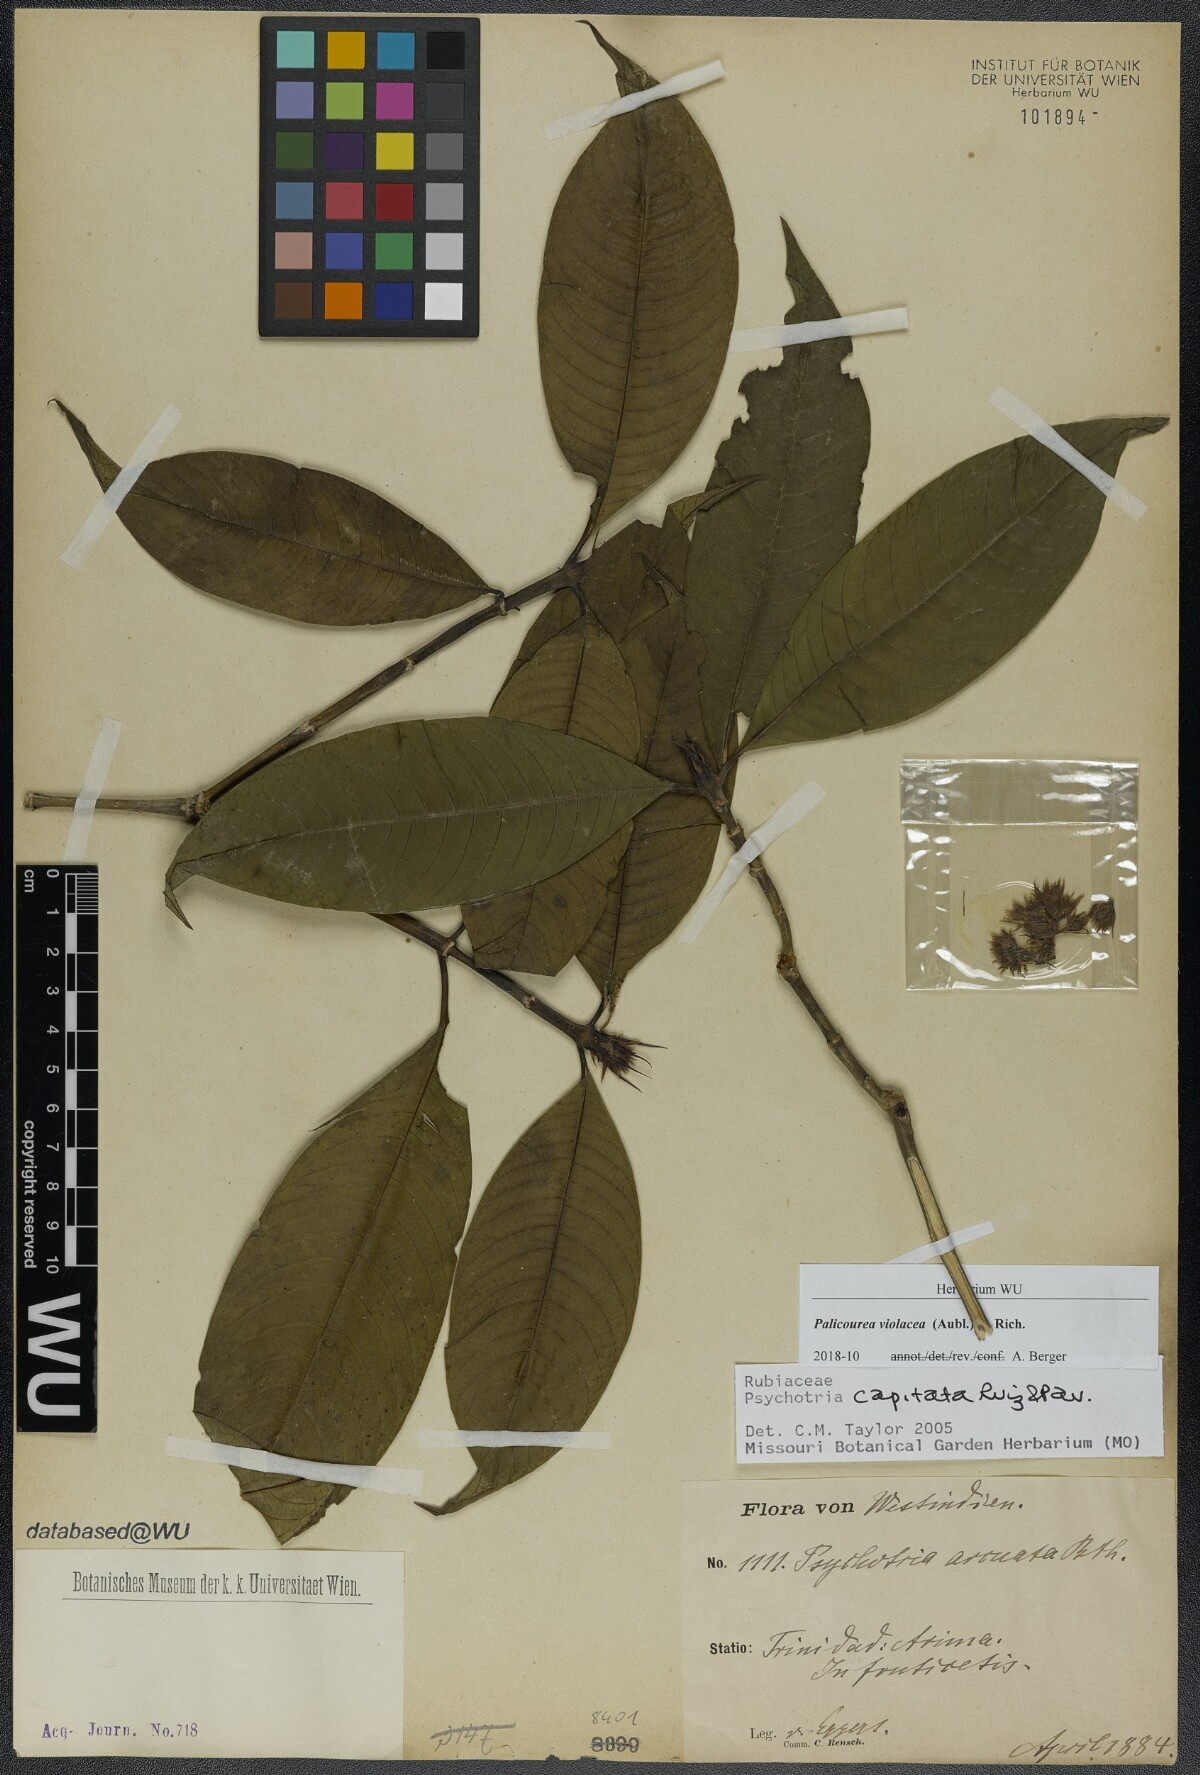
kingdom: Plantae
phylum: Tracheophyta
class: Magnoliopsida
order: Gentianales
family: Rubiaceae
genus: Palicourea
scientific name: Palicourea violacea
